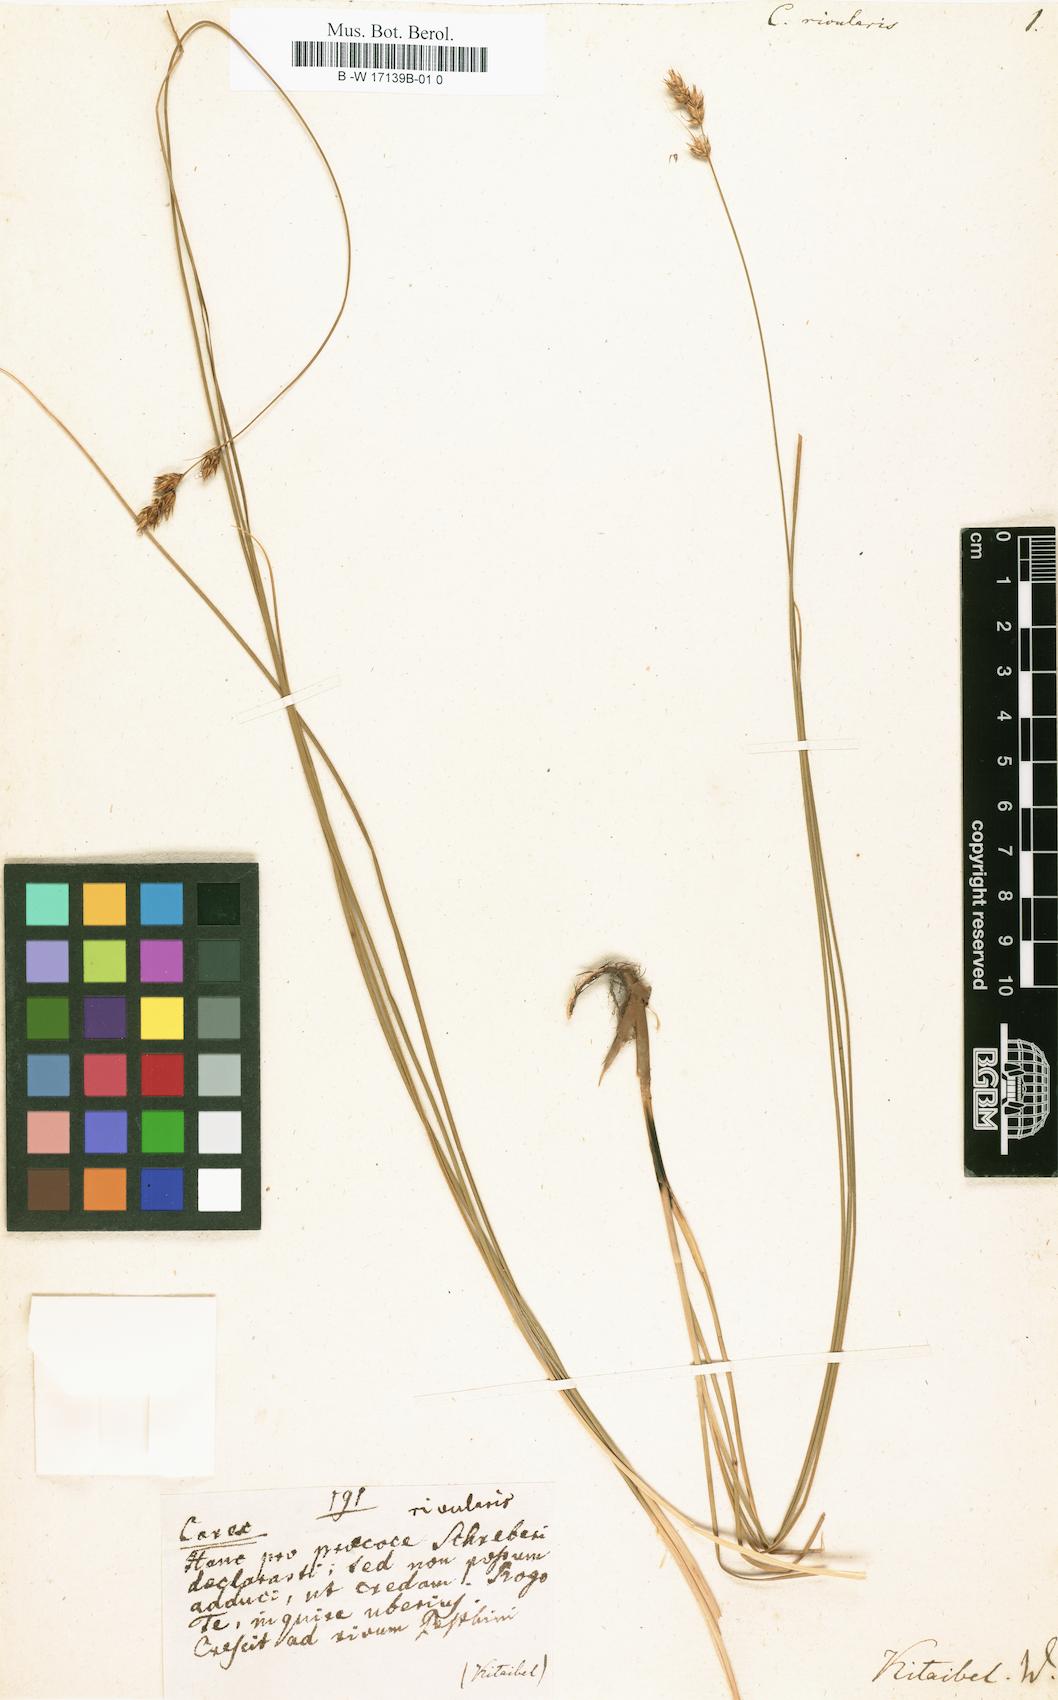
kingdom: Plantae
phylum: Tracheophyta
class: Liliopsida
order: Poales
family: Cyperaceae
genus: Carex
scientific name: Carex divisa
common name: Divided sedge
